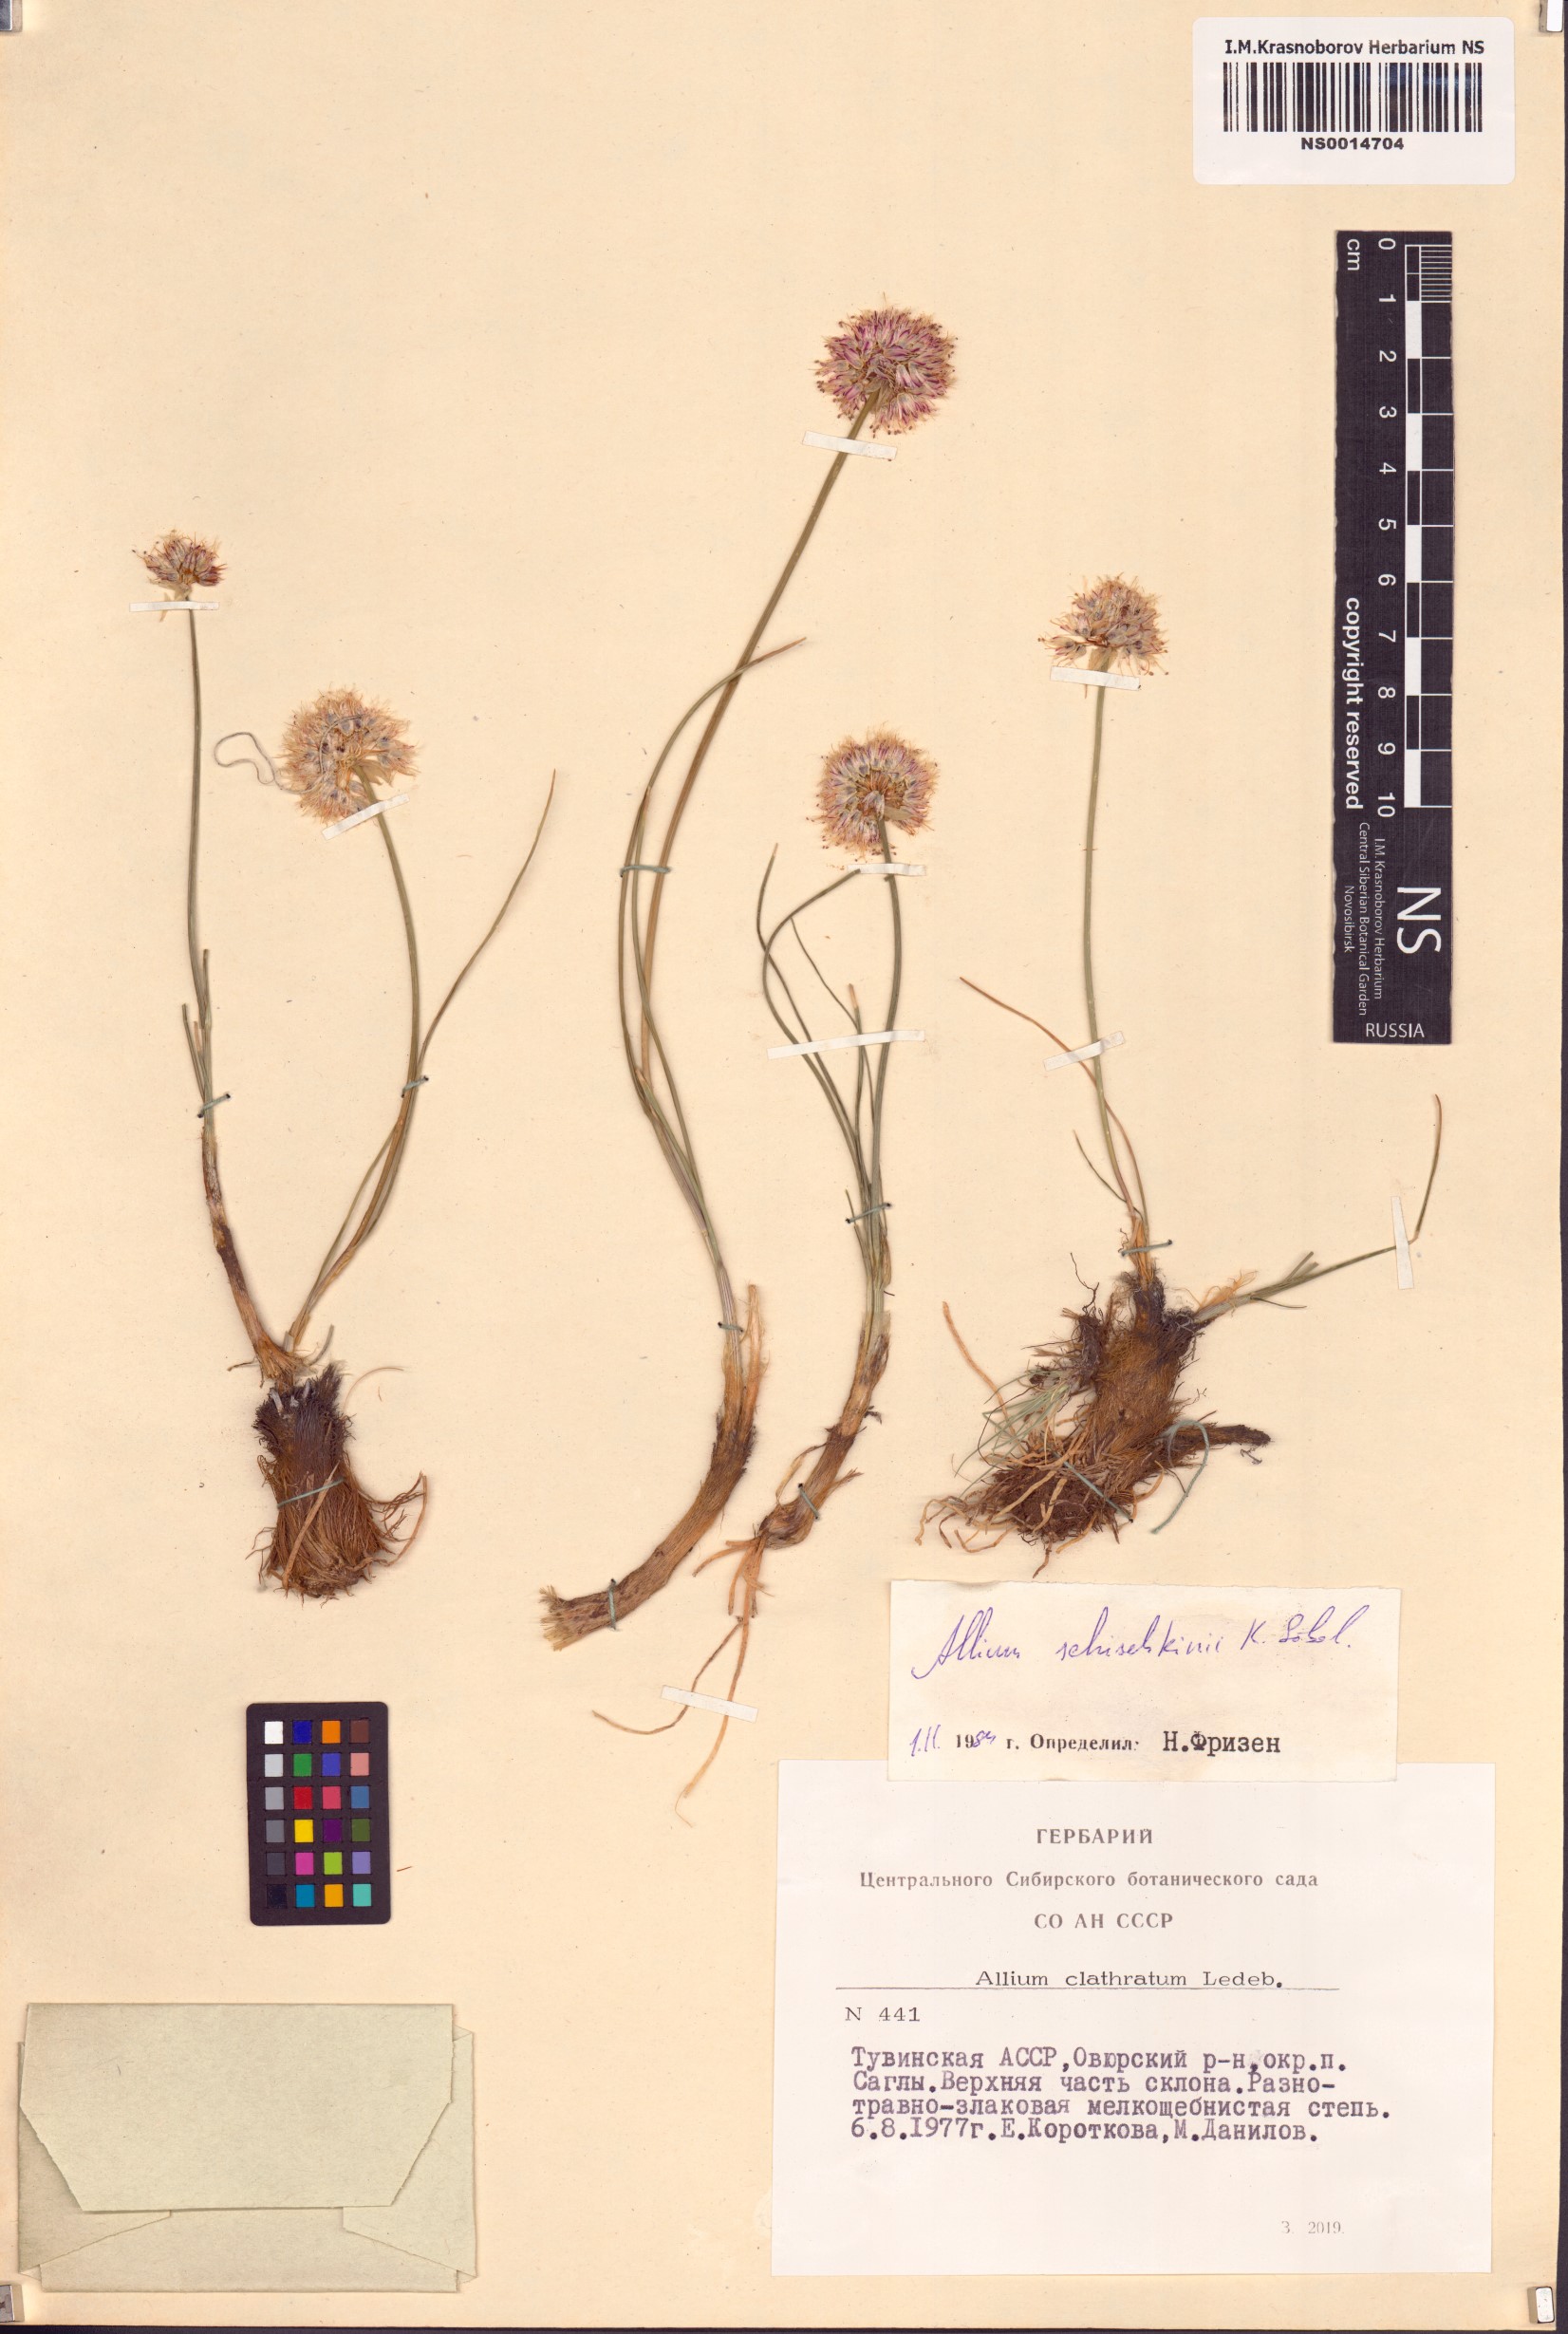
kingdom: Plantae
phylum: Tracheophyta
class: Liliopsida
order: Asparagales
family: Amaryllidaceae
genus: Allium
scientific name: Allium schischkinii
